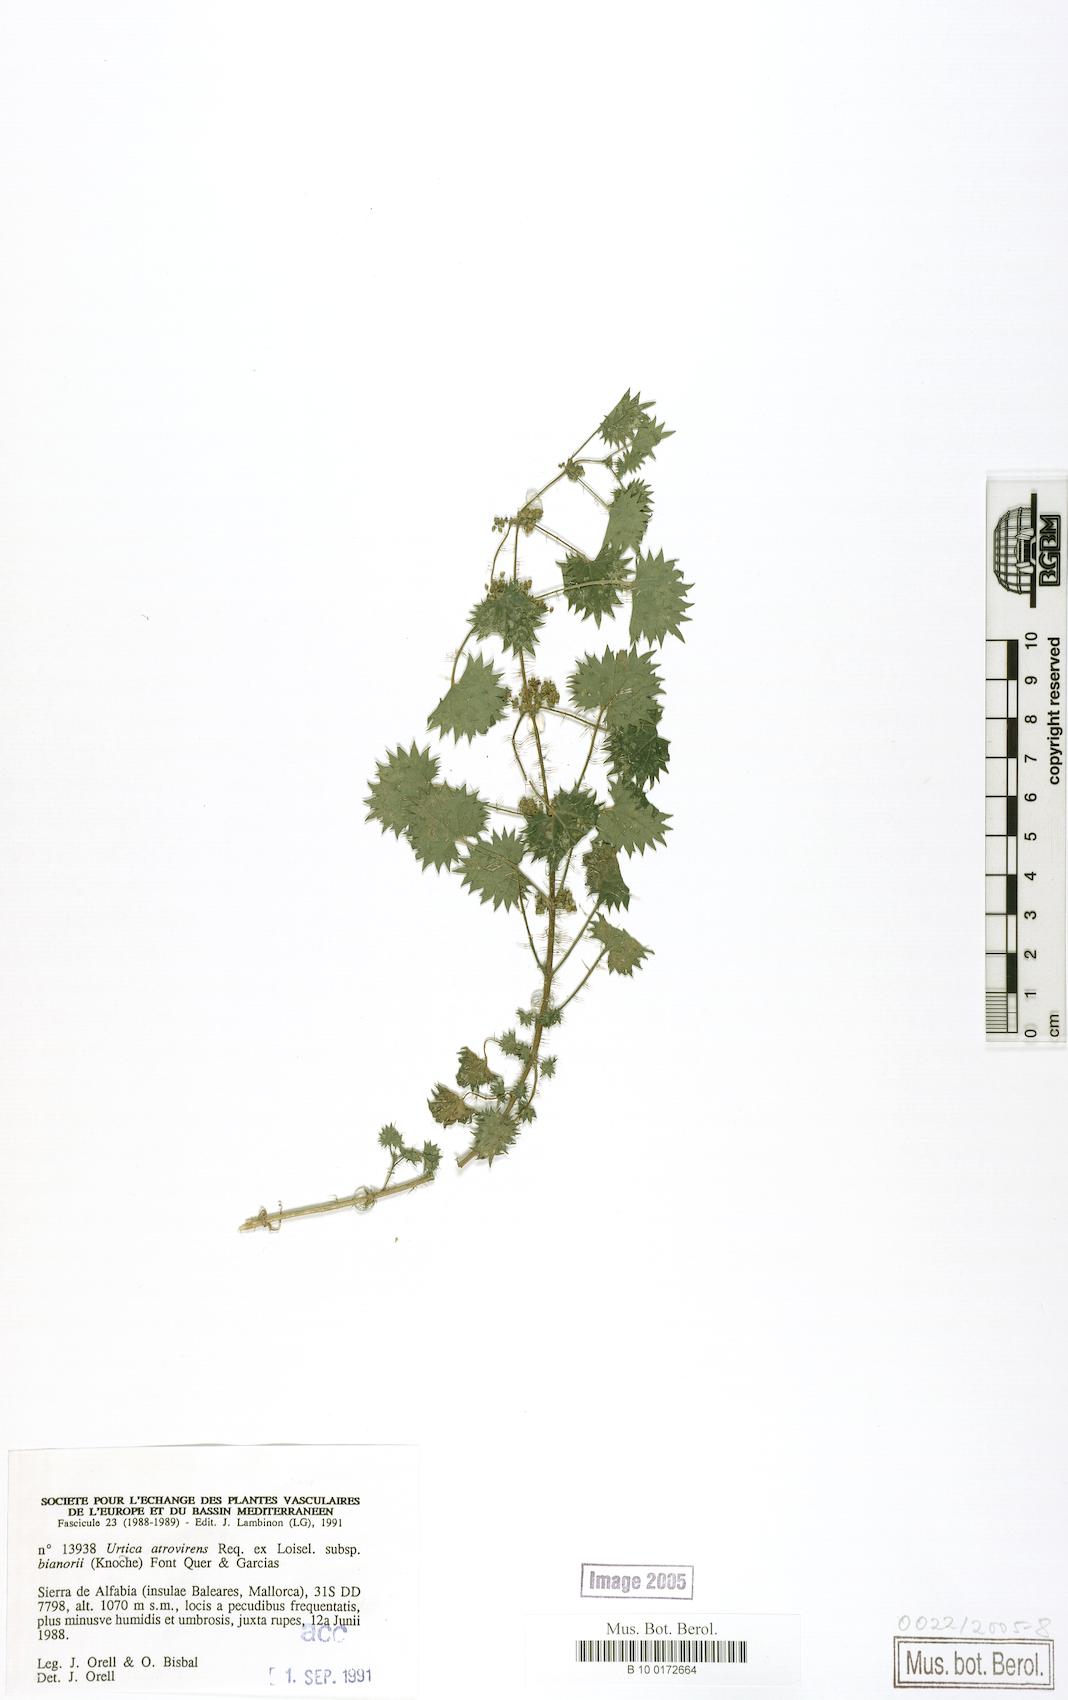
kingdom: Plantae
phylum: Tracheophyta
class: Magnoliopsida
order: Rosales
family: Urticaceae
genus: Urtica
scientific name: Urtica atrovirens
